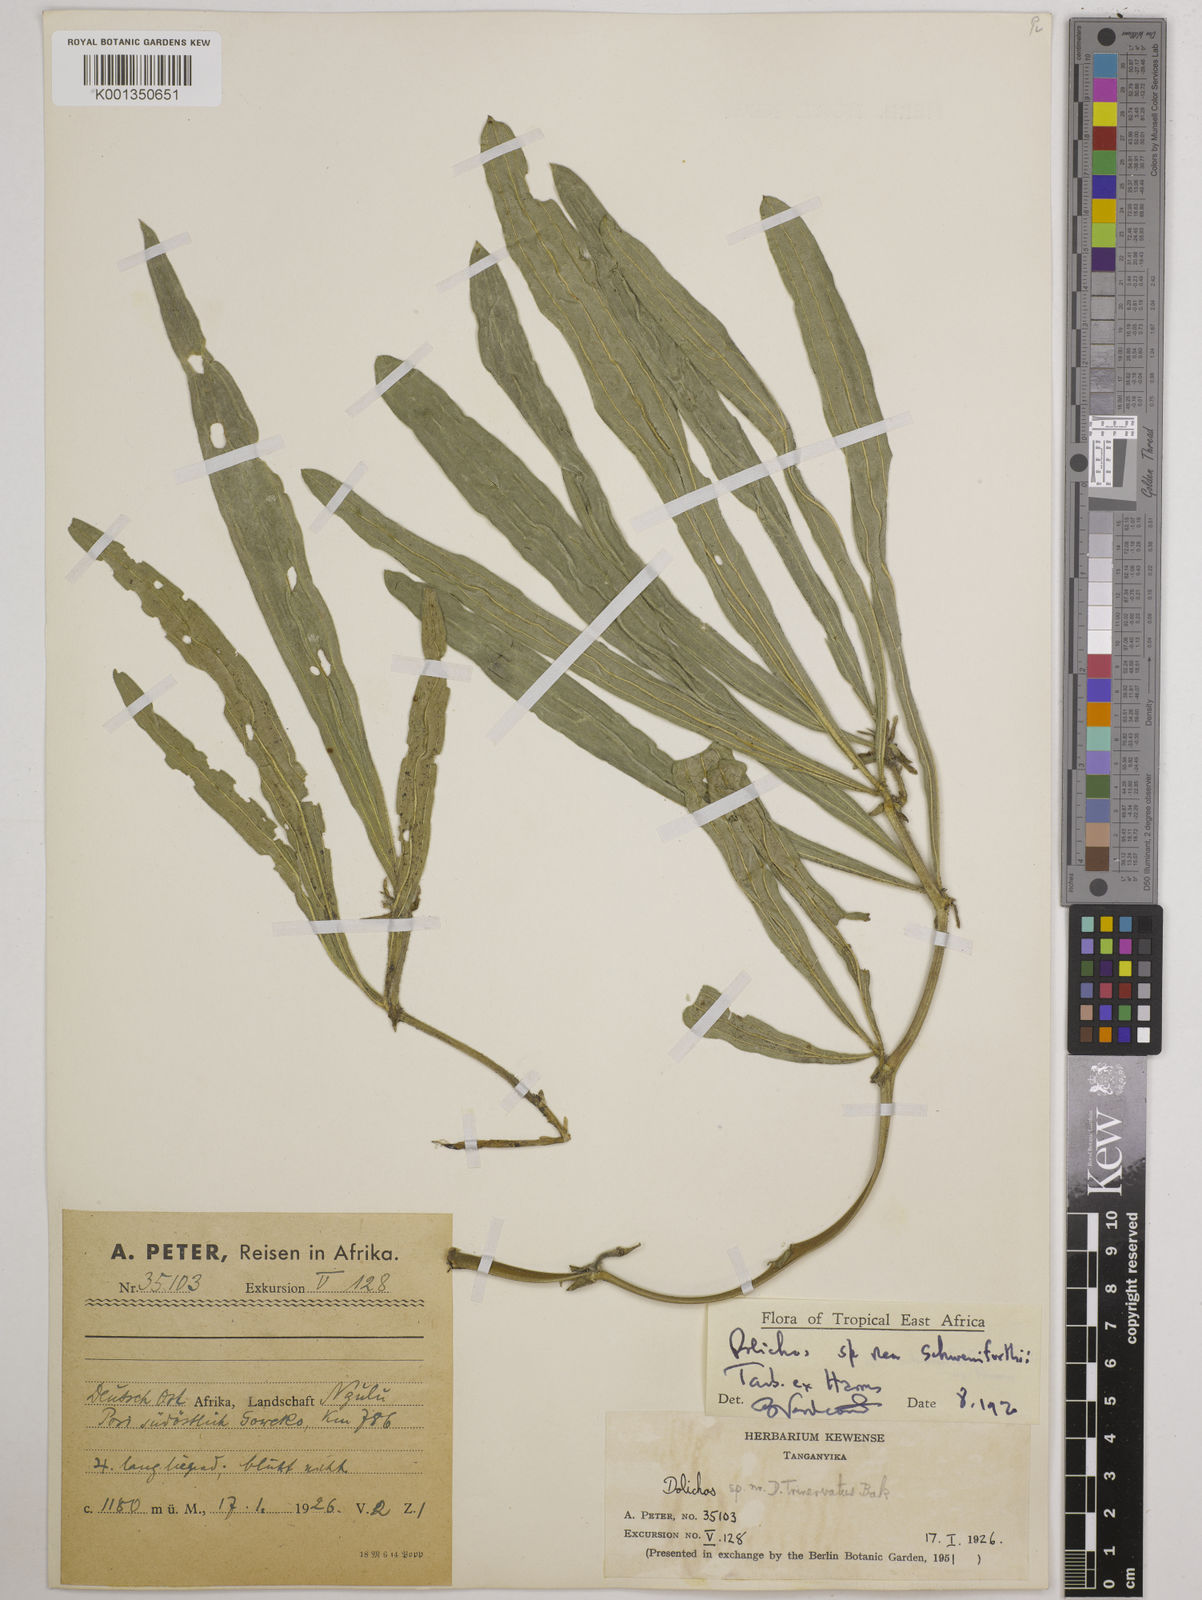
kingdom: Plantae
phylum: Tracheophyta
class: Magnoliopsida
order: Fabales
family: Fabaceae
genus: Dolichos
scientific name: Dolichos schweinfurthii
